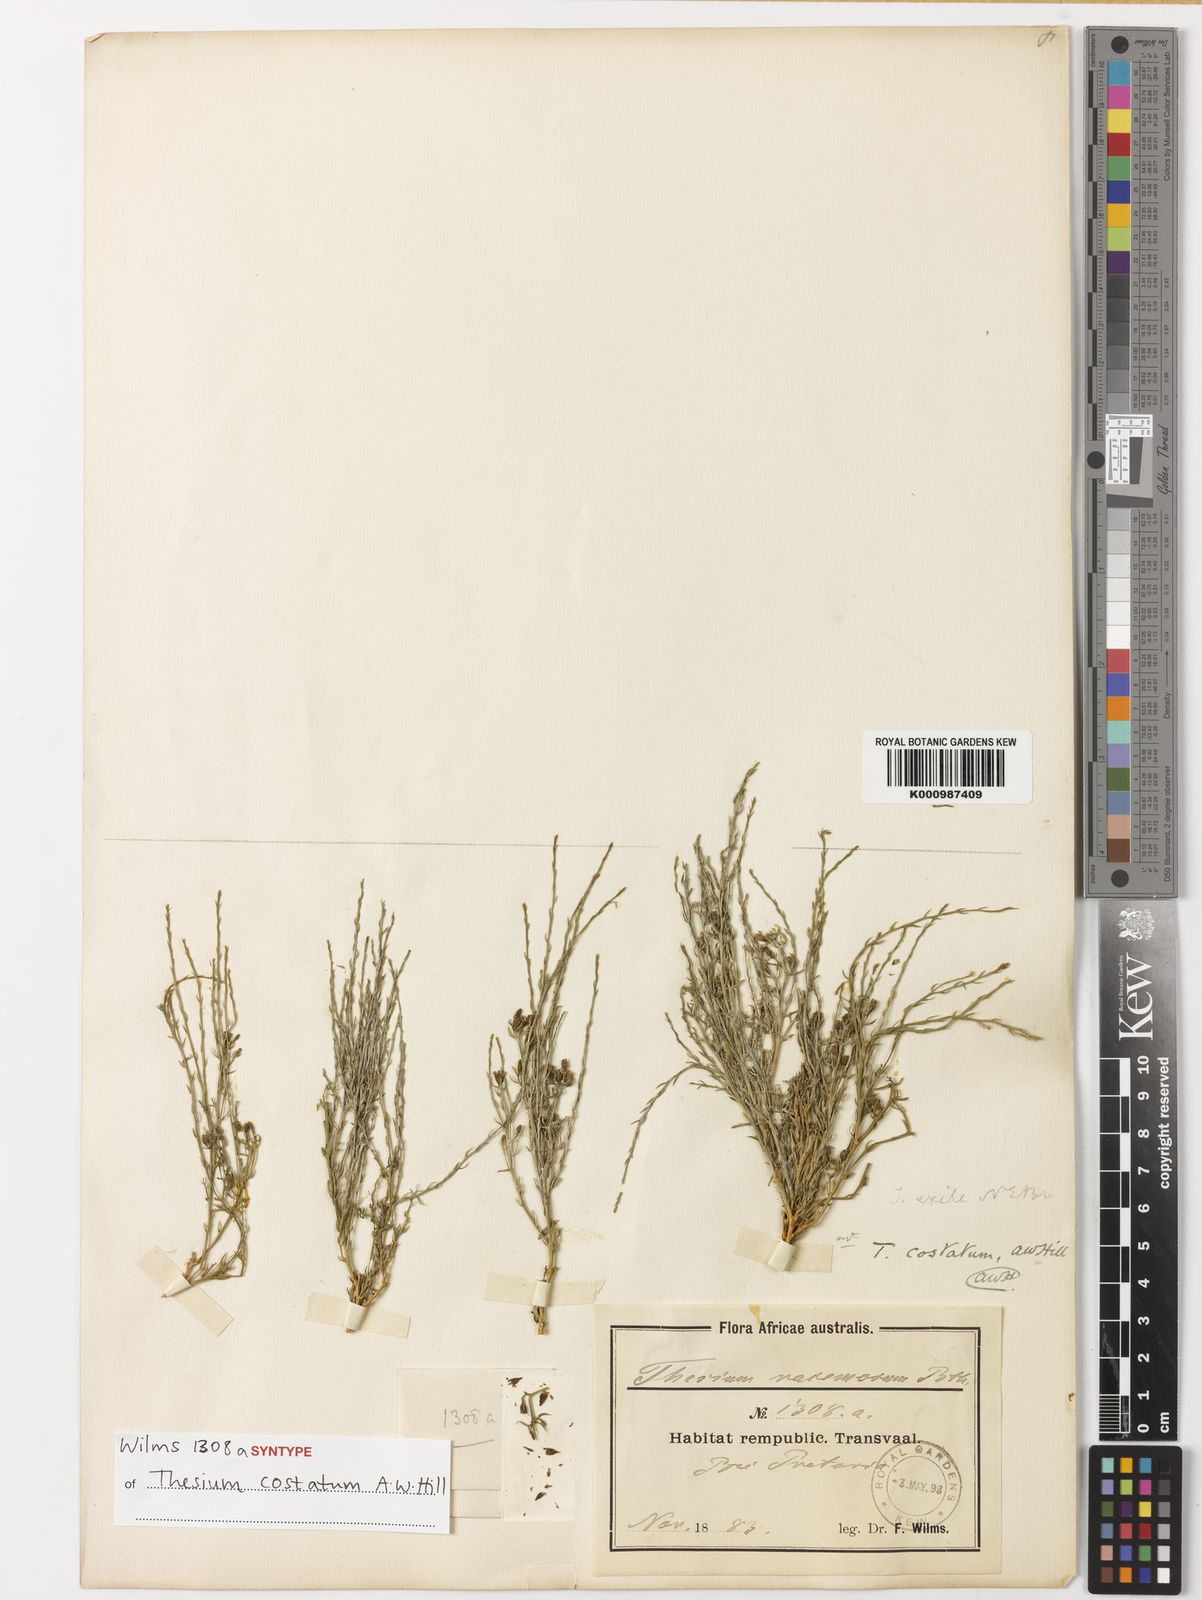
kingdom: Plantae
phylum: Tracheophyta
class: Magnoliopsida
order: Santalales
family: Thesiaceae
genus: Thesium
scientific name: Thesium costatum
